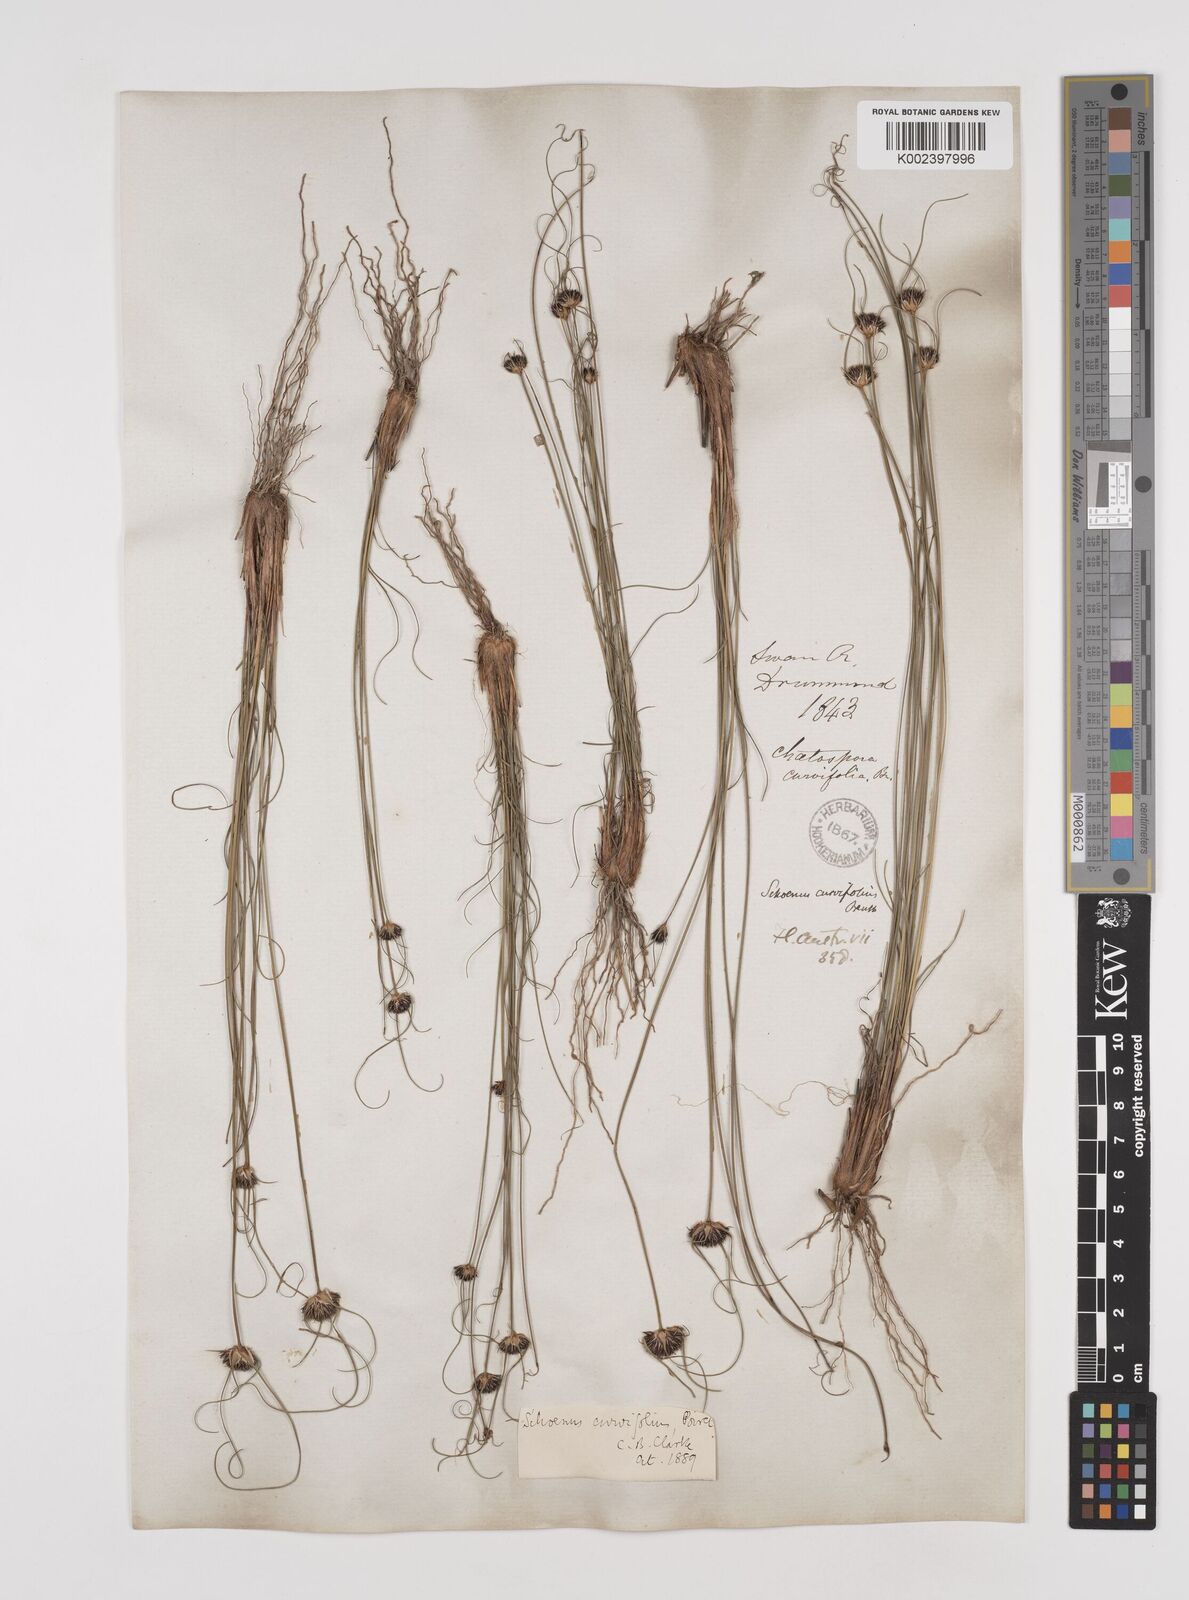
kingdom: Plantae
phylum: Tracheophyta
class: Liliopsida
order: Poales
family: Cyperaceae
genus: Schoenus
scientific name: Schoenus curvifolius
